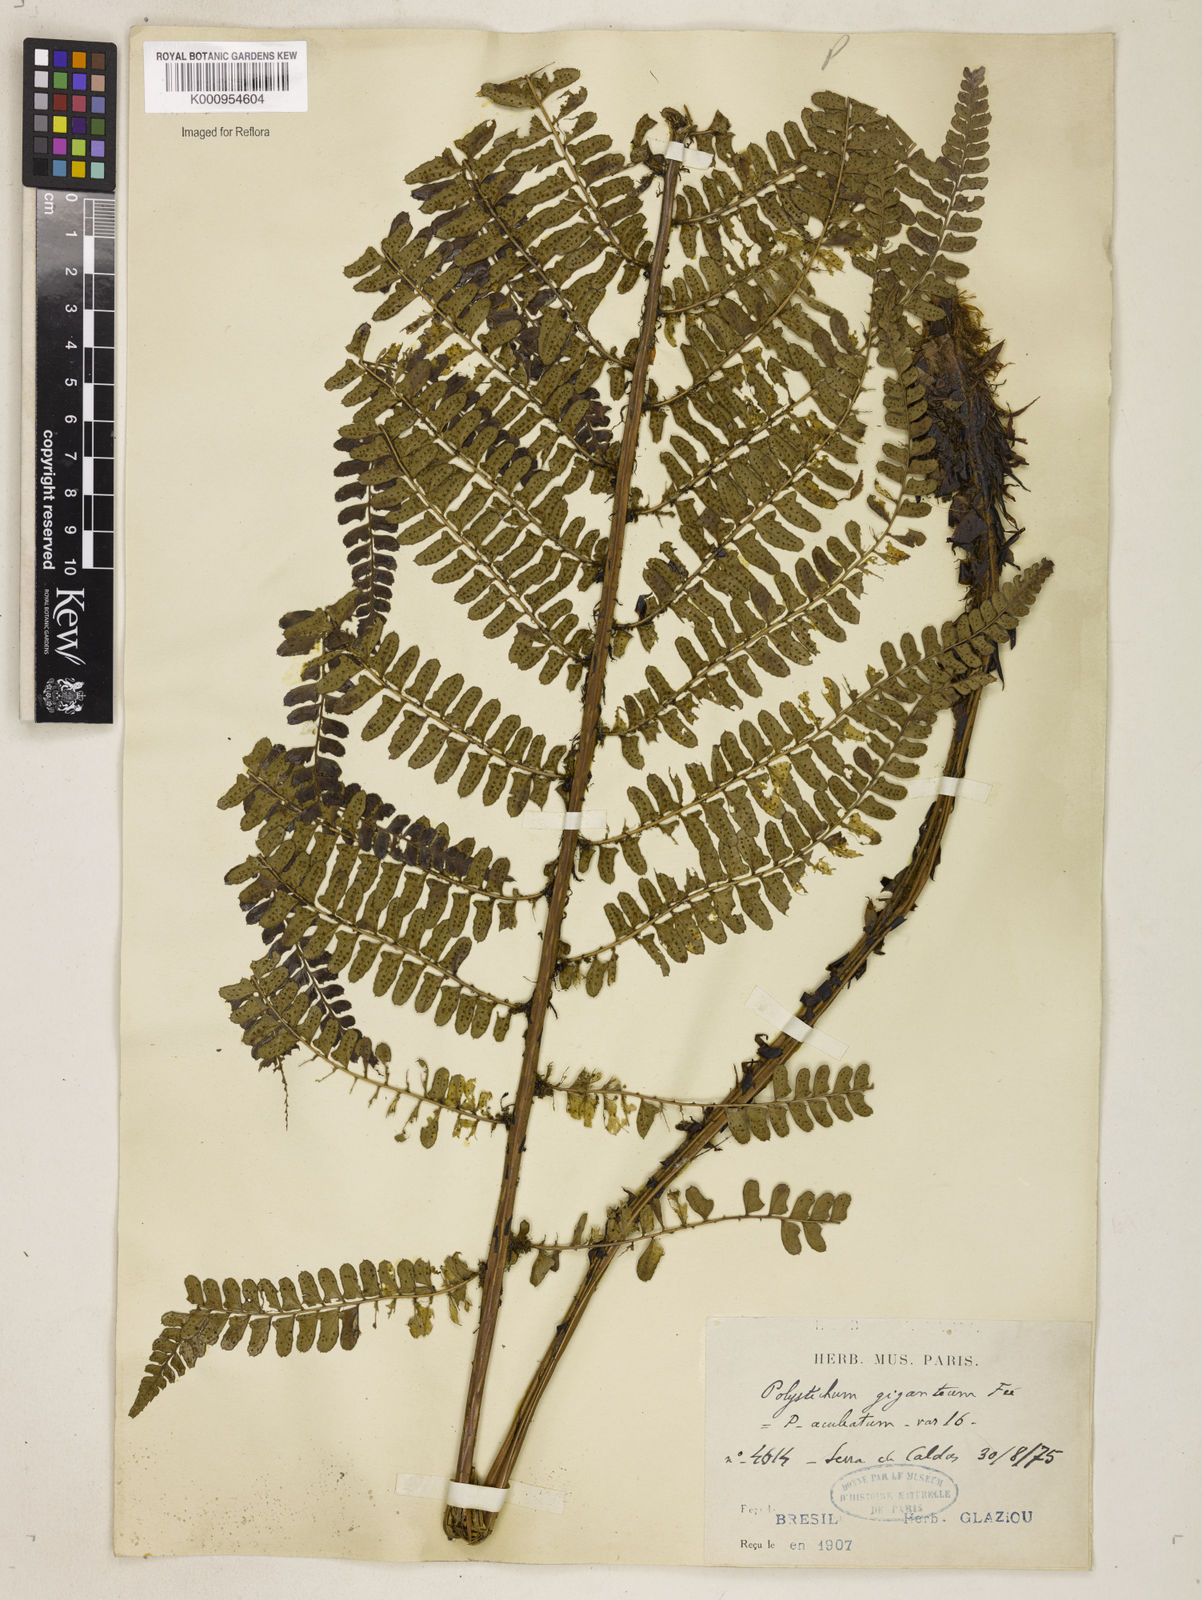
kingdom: Plantae
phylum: Tracheophyta
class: Polypodiopsida
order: Polypodiales
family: Dryopteridaceae
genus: Polystichum
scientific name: Polystichum montevidense
